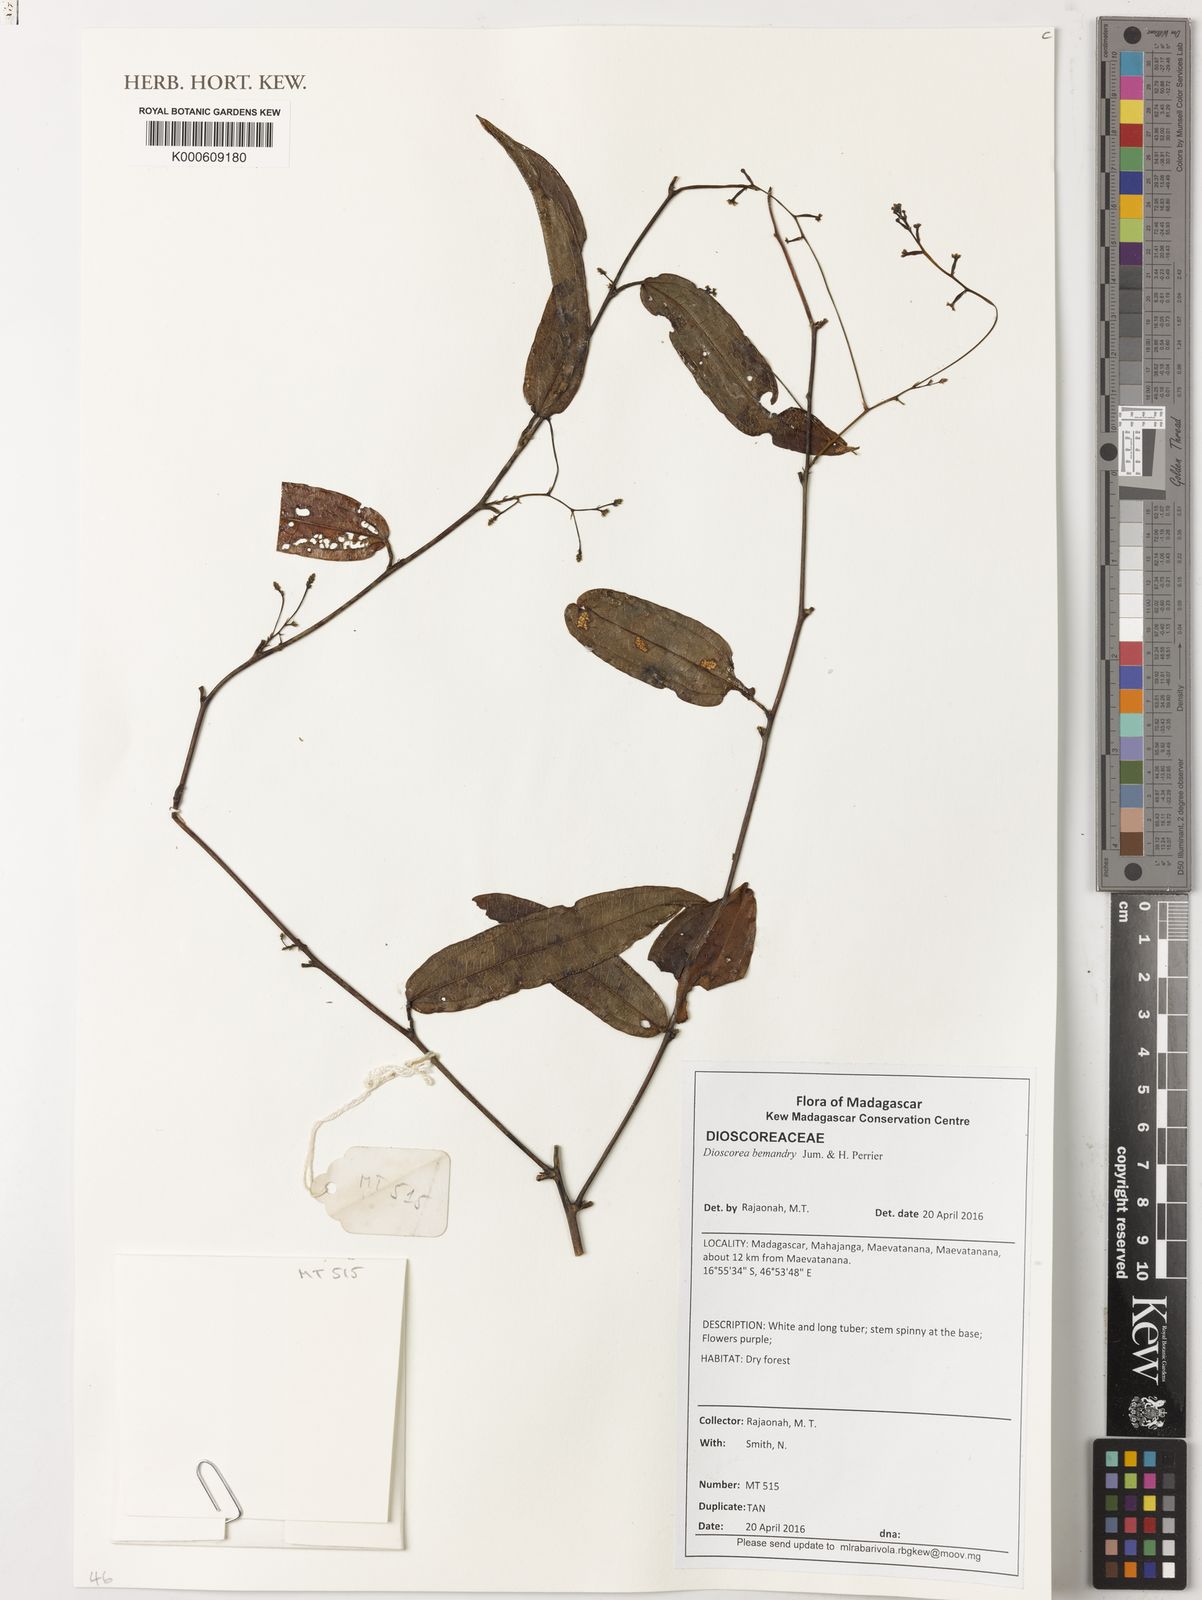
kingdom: Plantae
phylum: Tracheophyta
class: Liliopsida
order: Dioscoreales
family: Dioscoreaceae
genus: Dioscorea
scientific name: Dioscorea bemandry
